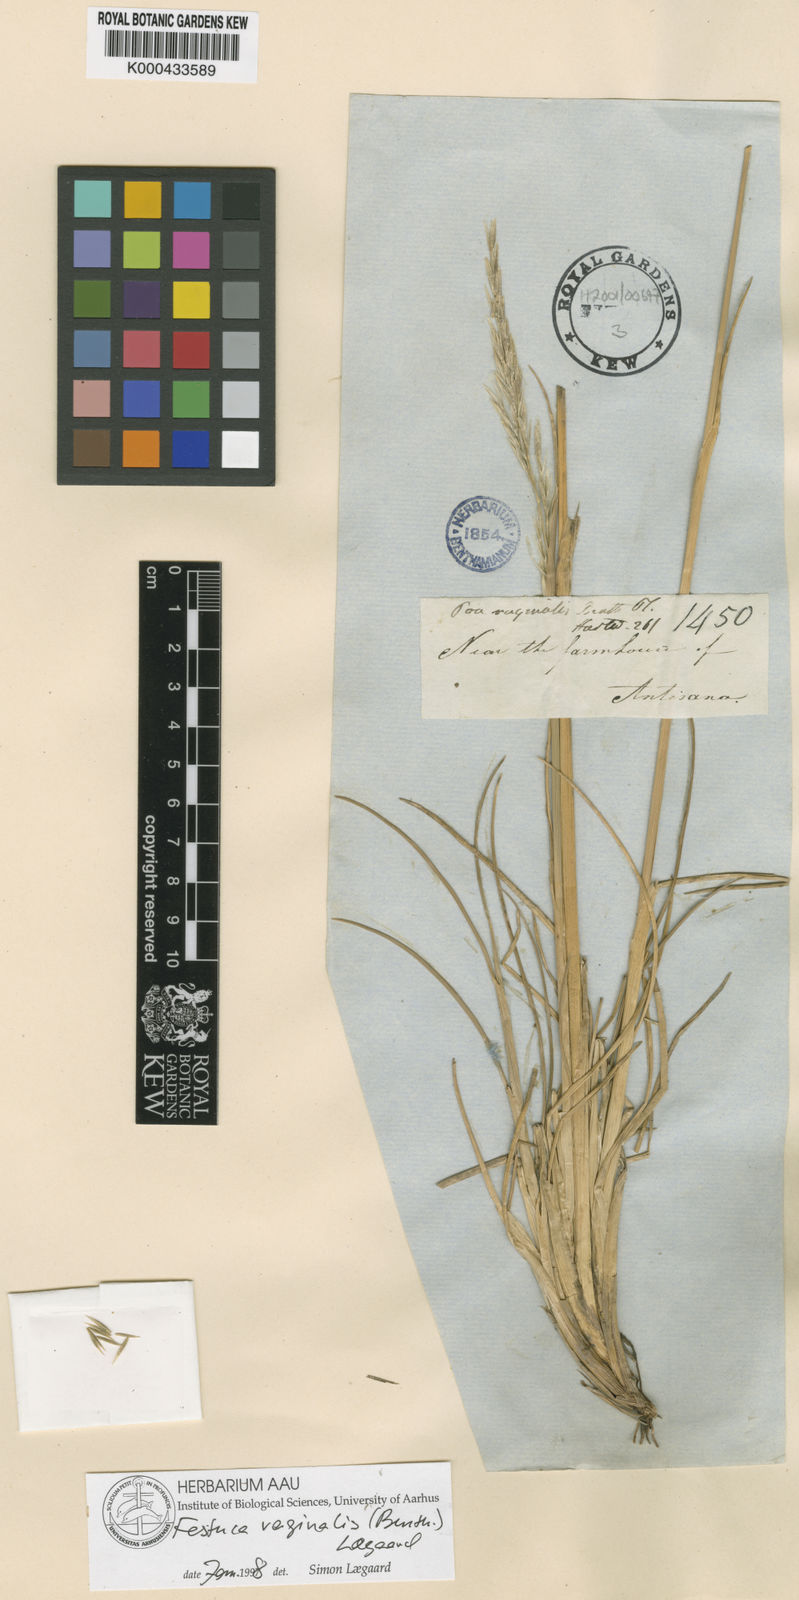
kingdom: Plantae
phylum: Tracheophyta
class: Liliopsida
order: Poales
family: Poaceae
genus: Festuca
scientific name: Festuca vaginalis
